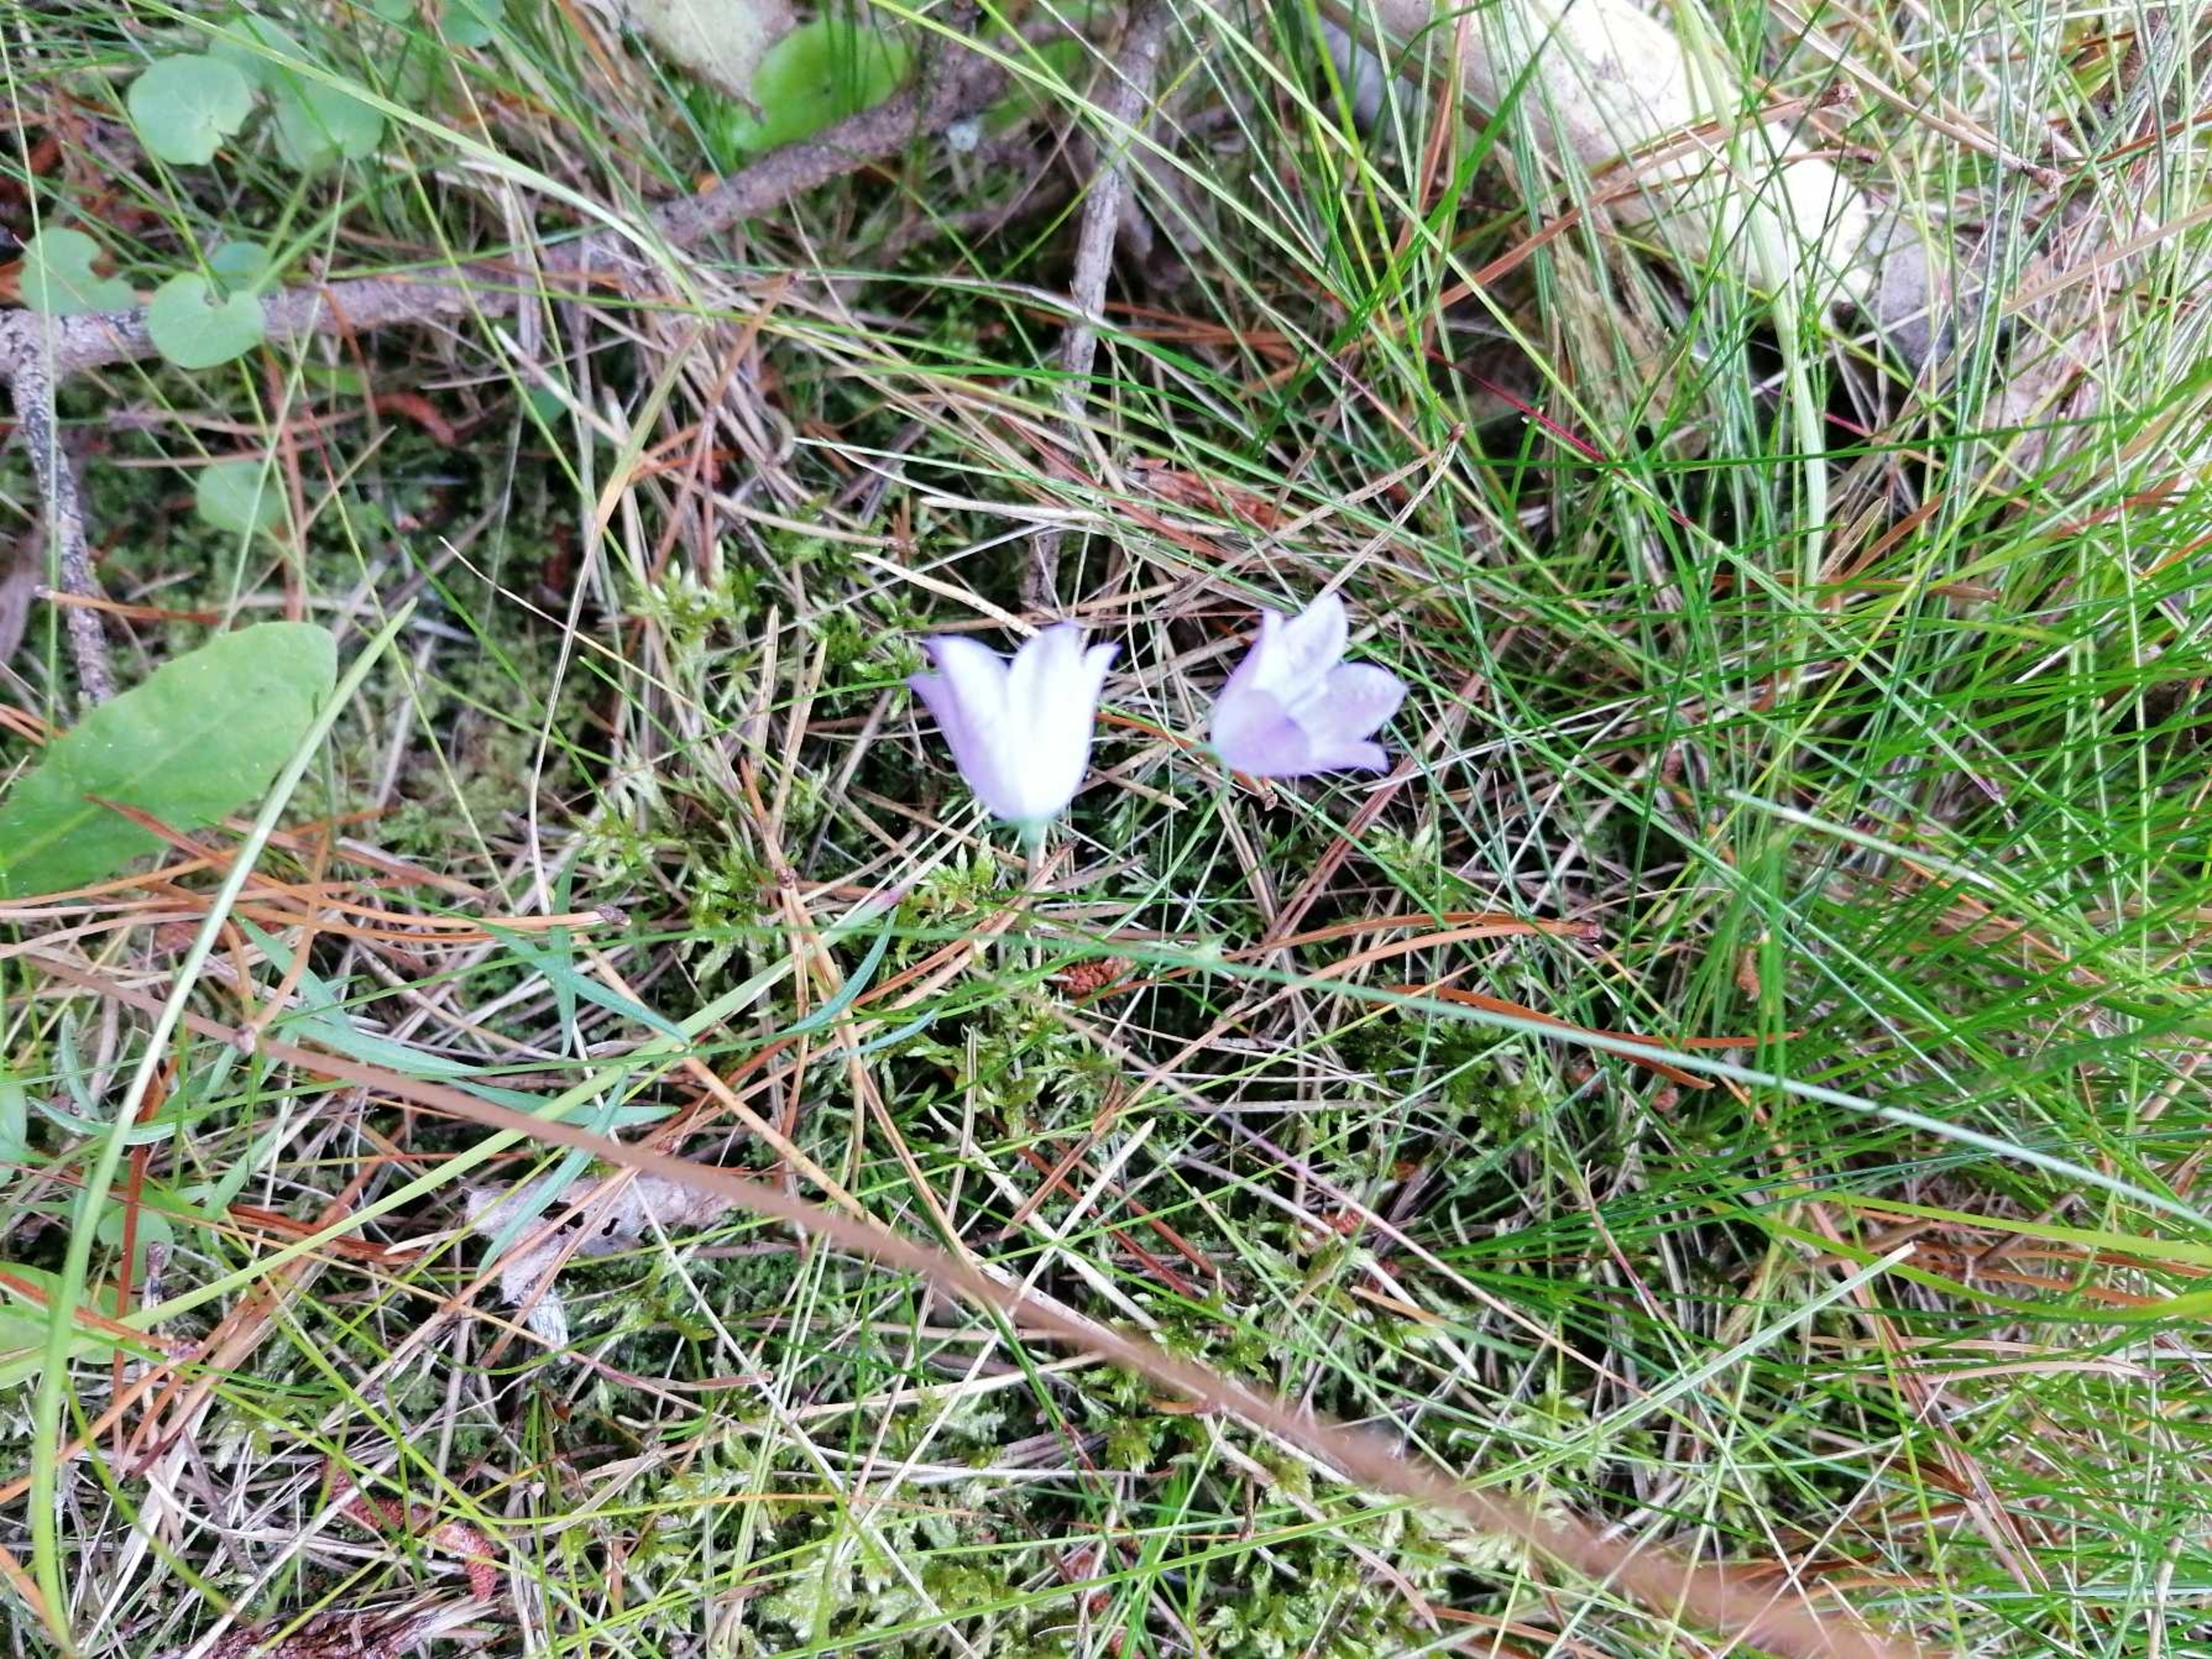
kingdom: Plantae
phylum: Tracheophyta
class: Magnoliopsida
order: Asterales
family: Campanulaceae
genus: Campanula
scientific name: Campanula rotundifolia
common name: Liden klokke
